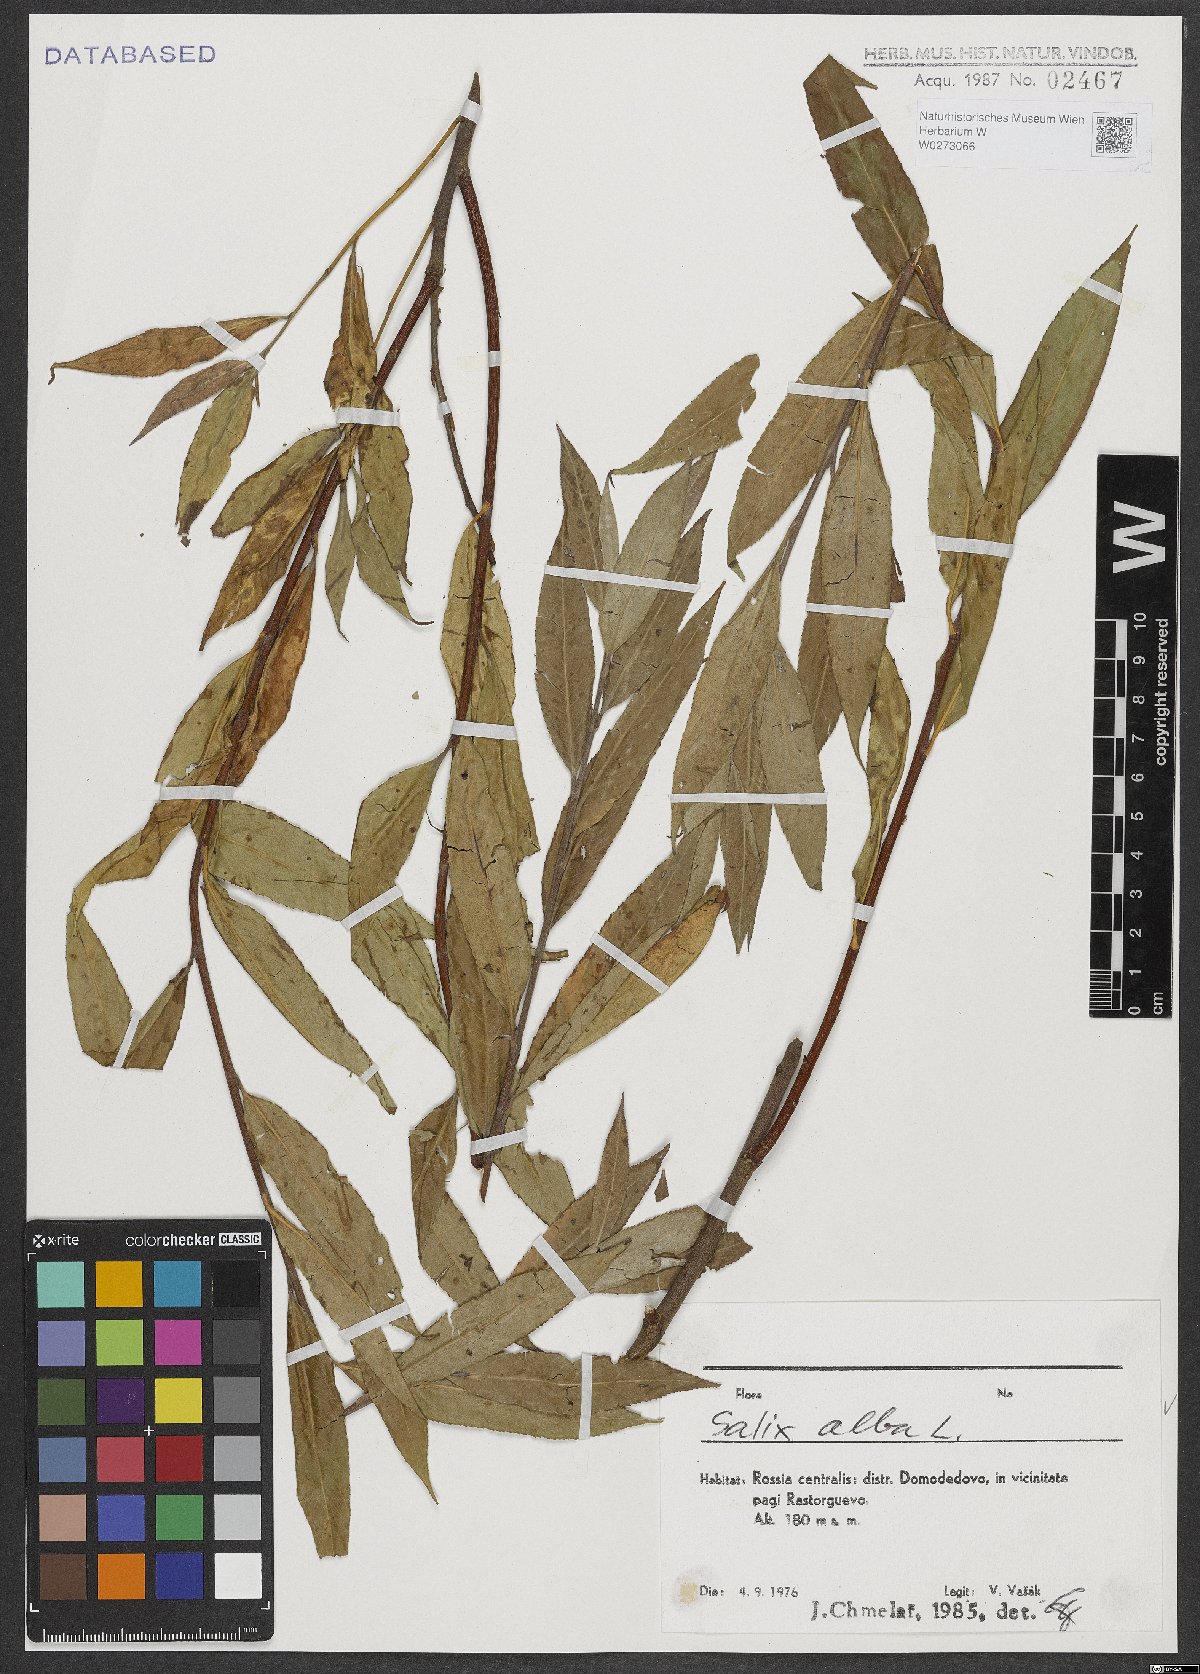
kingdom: Plantae
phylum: Tracheophyta
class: Magnoliopsida
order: Malpighiales
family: Salicaceae
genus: Salix
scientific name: Salix alba
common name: White willow
